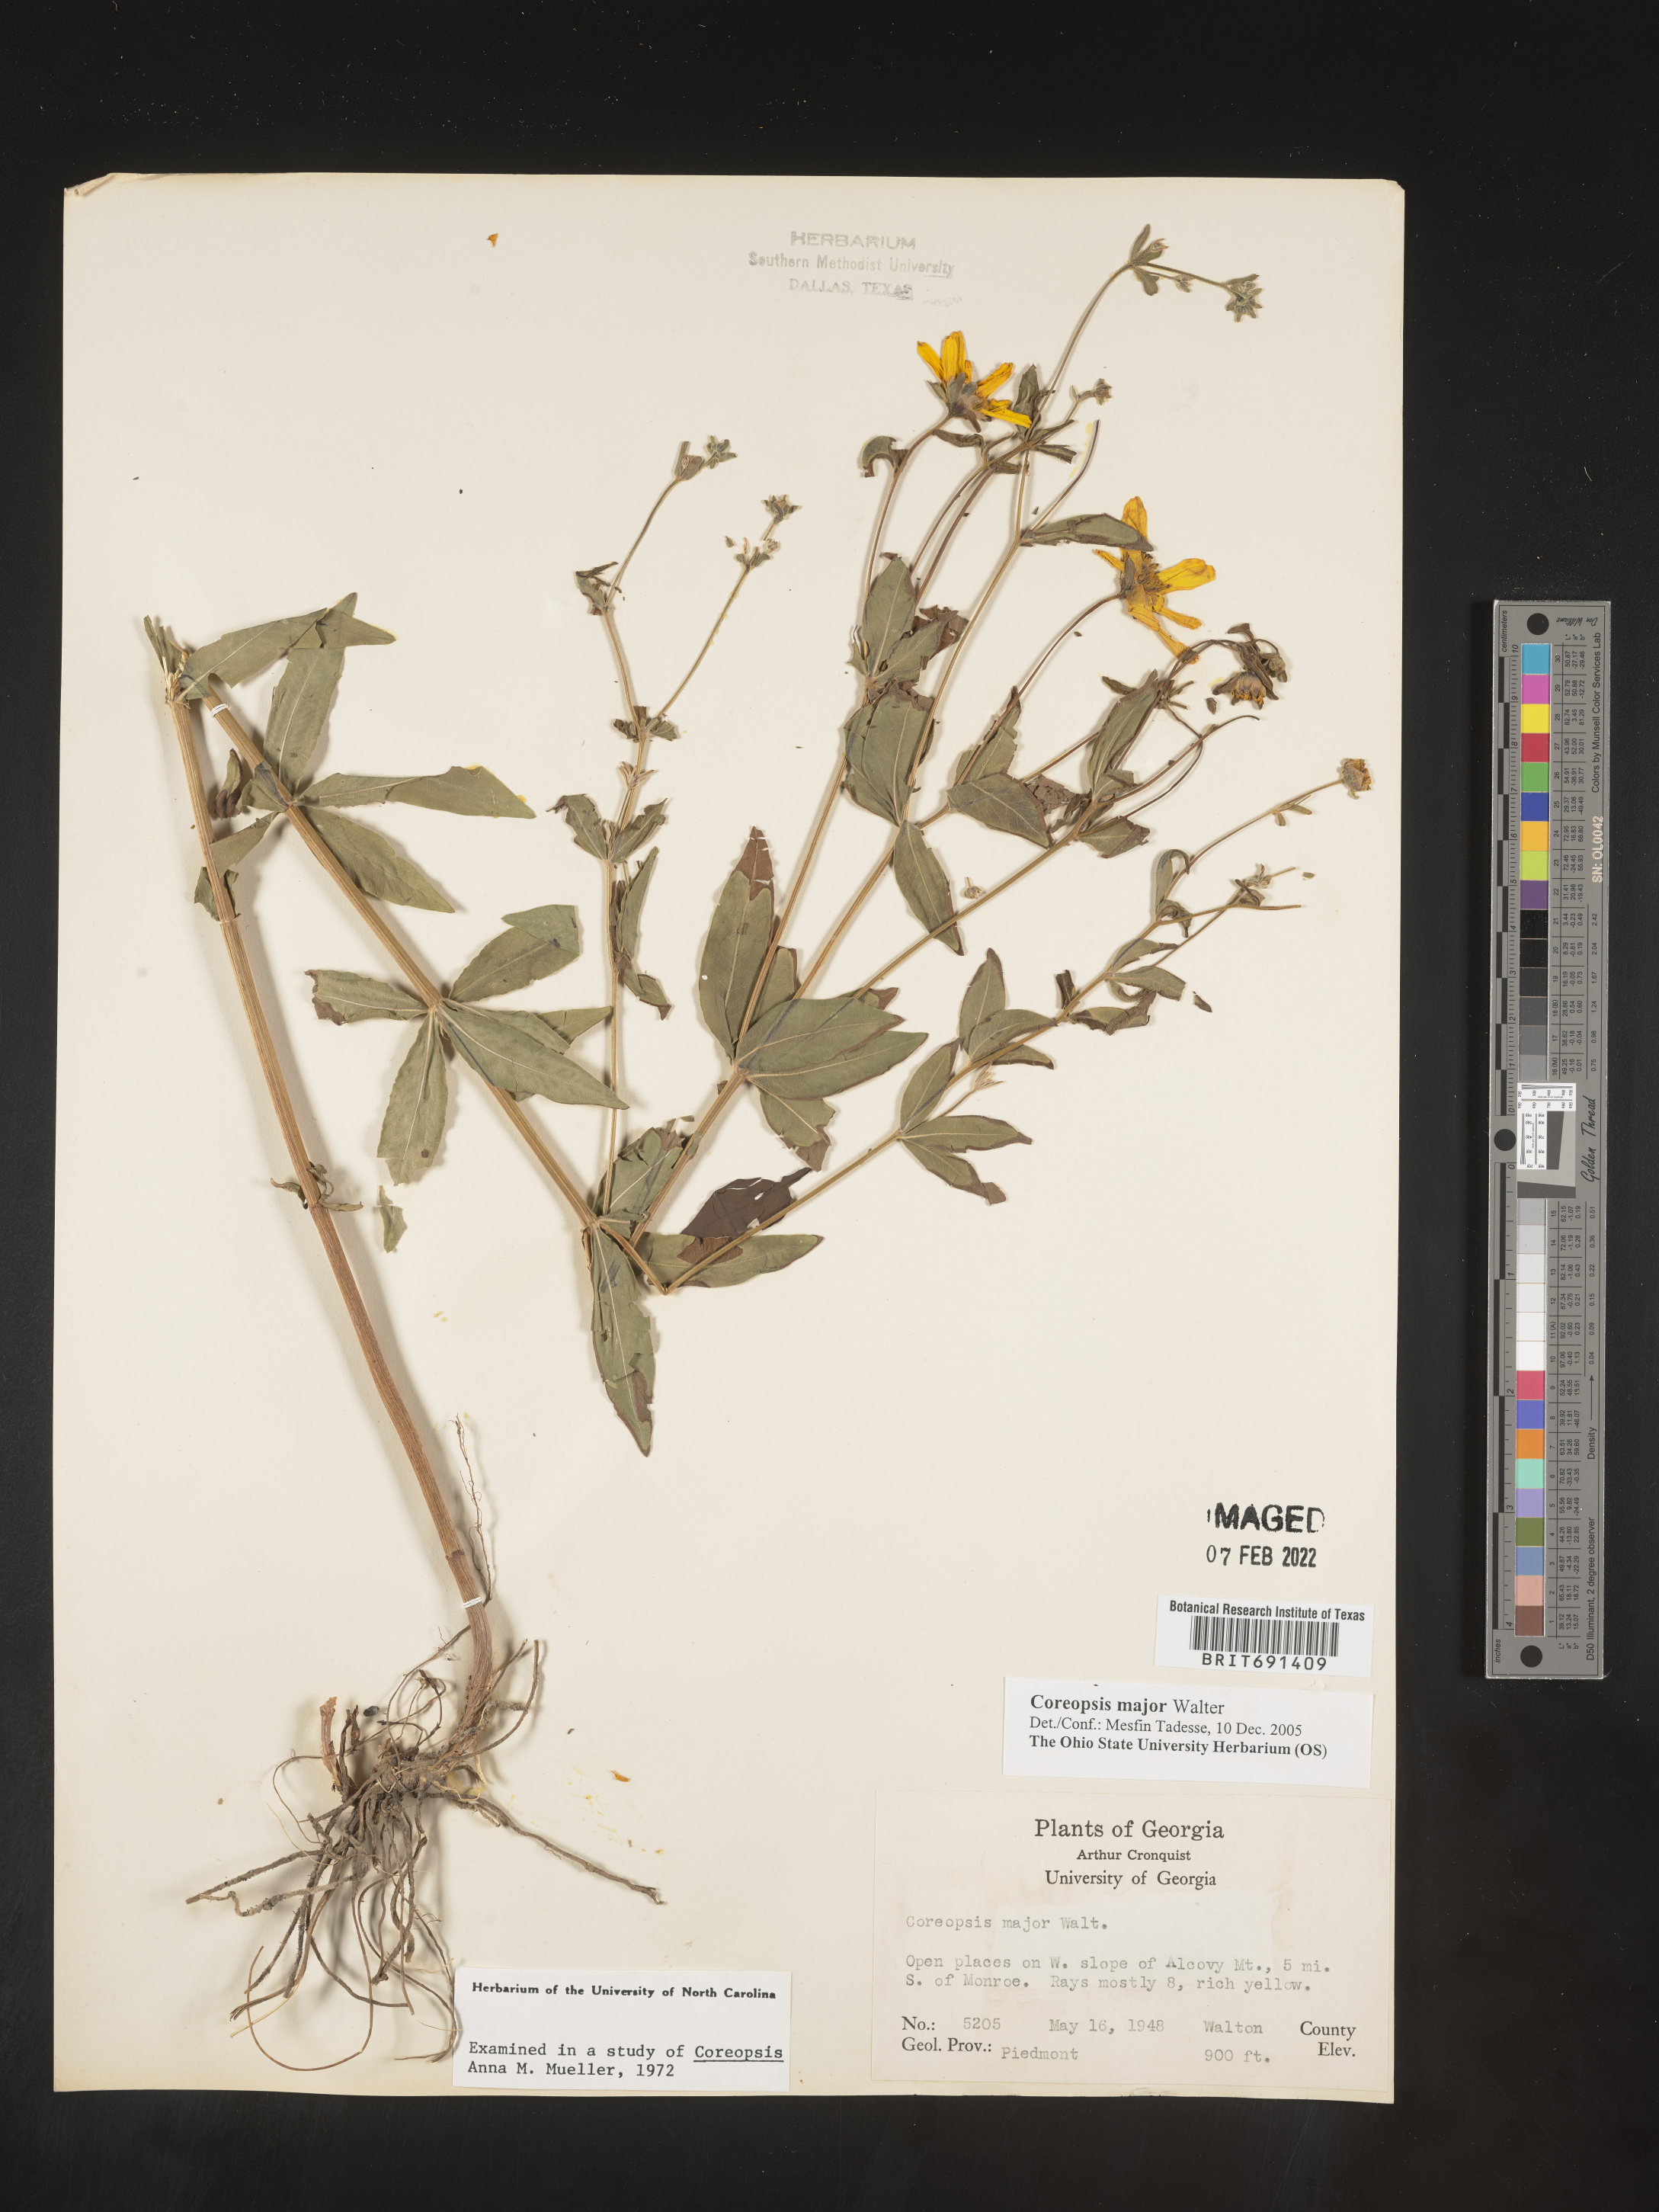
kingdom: Plantae
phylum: Tracheophyta
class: Magnoliopsida
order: Asterales
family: Asteraceae
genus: Coreopsis
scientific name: Coreopsis major
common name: Forest tickseed
